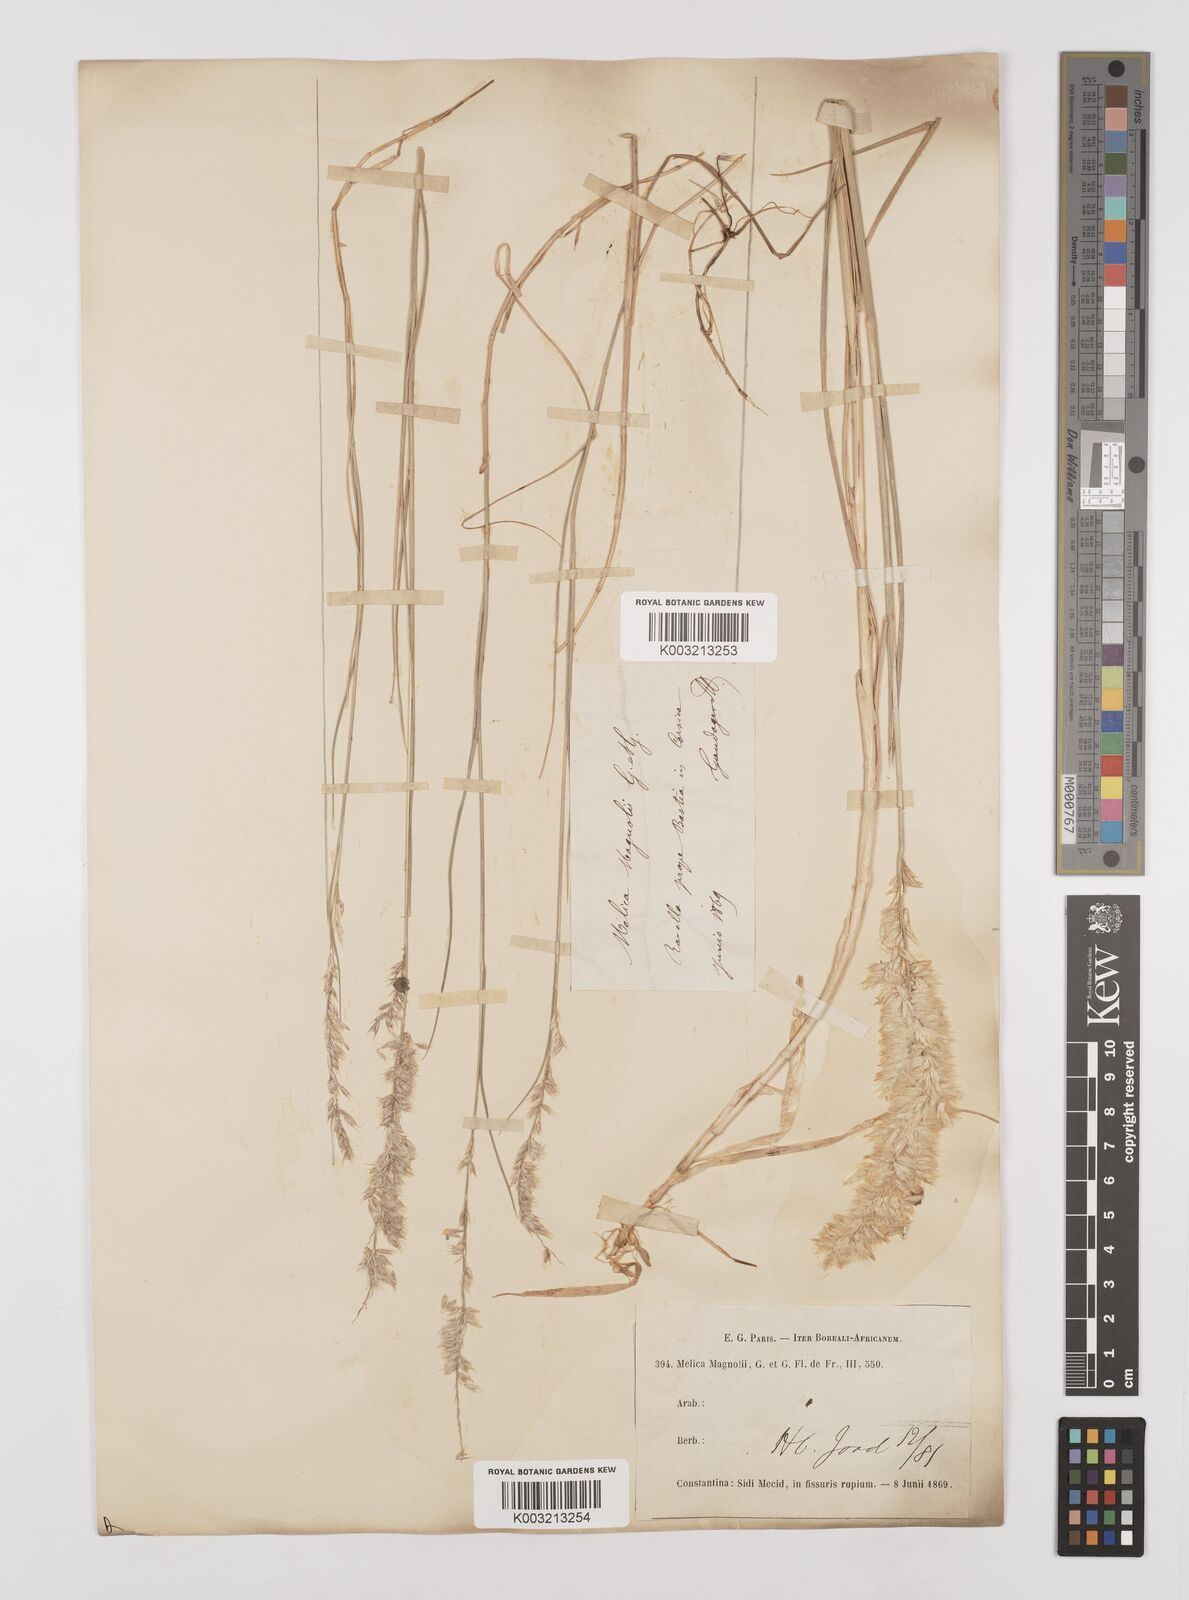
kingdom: Plantae
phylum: Tracheophyta
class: Liliopsida
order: Poales
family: Poaceae
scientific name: Poaceae
